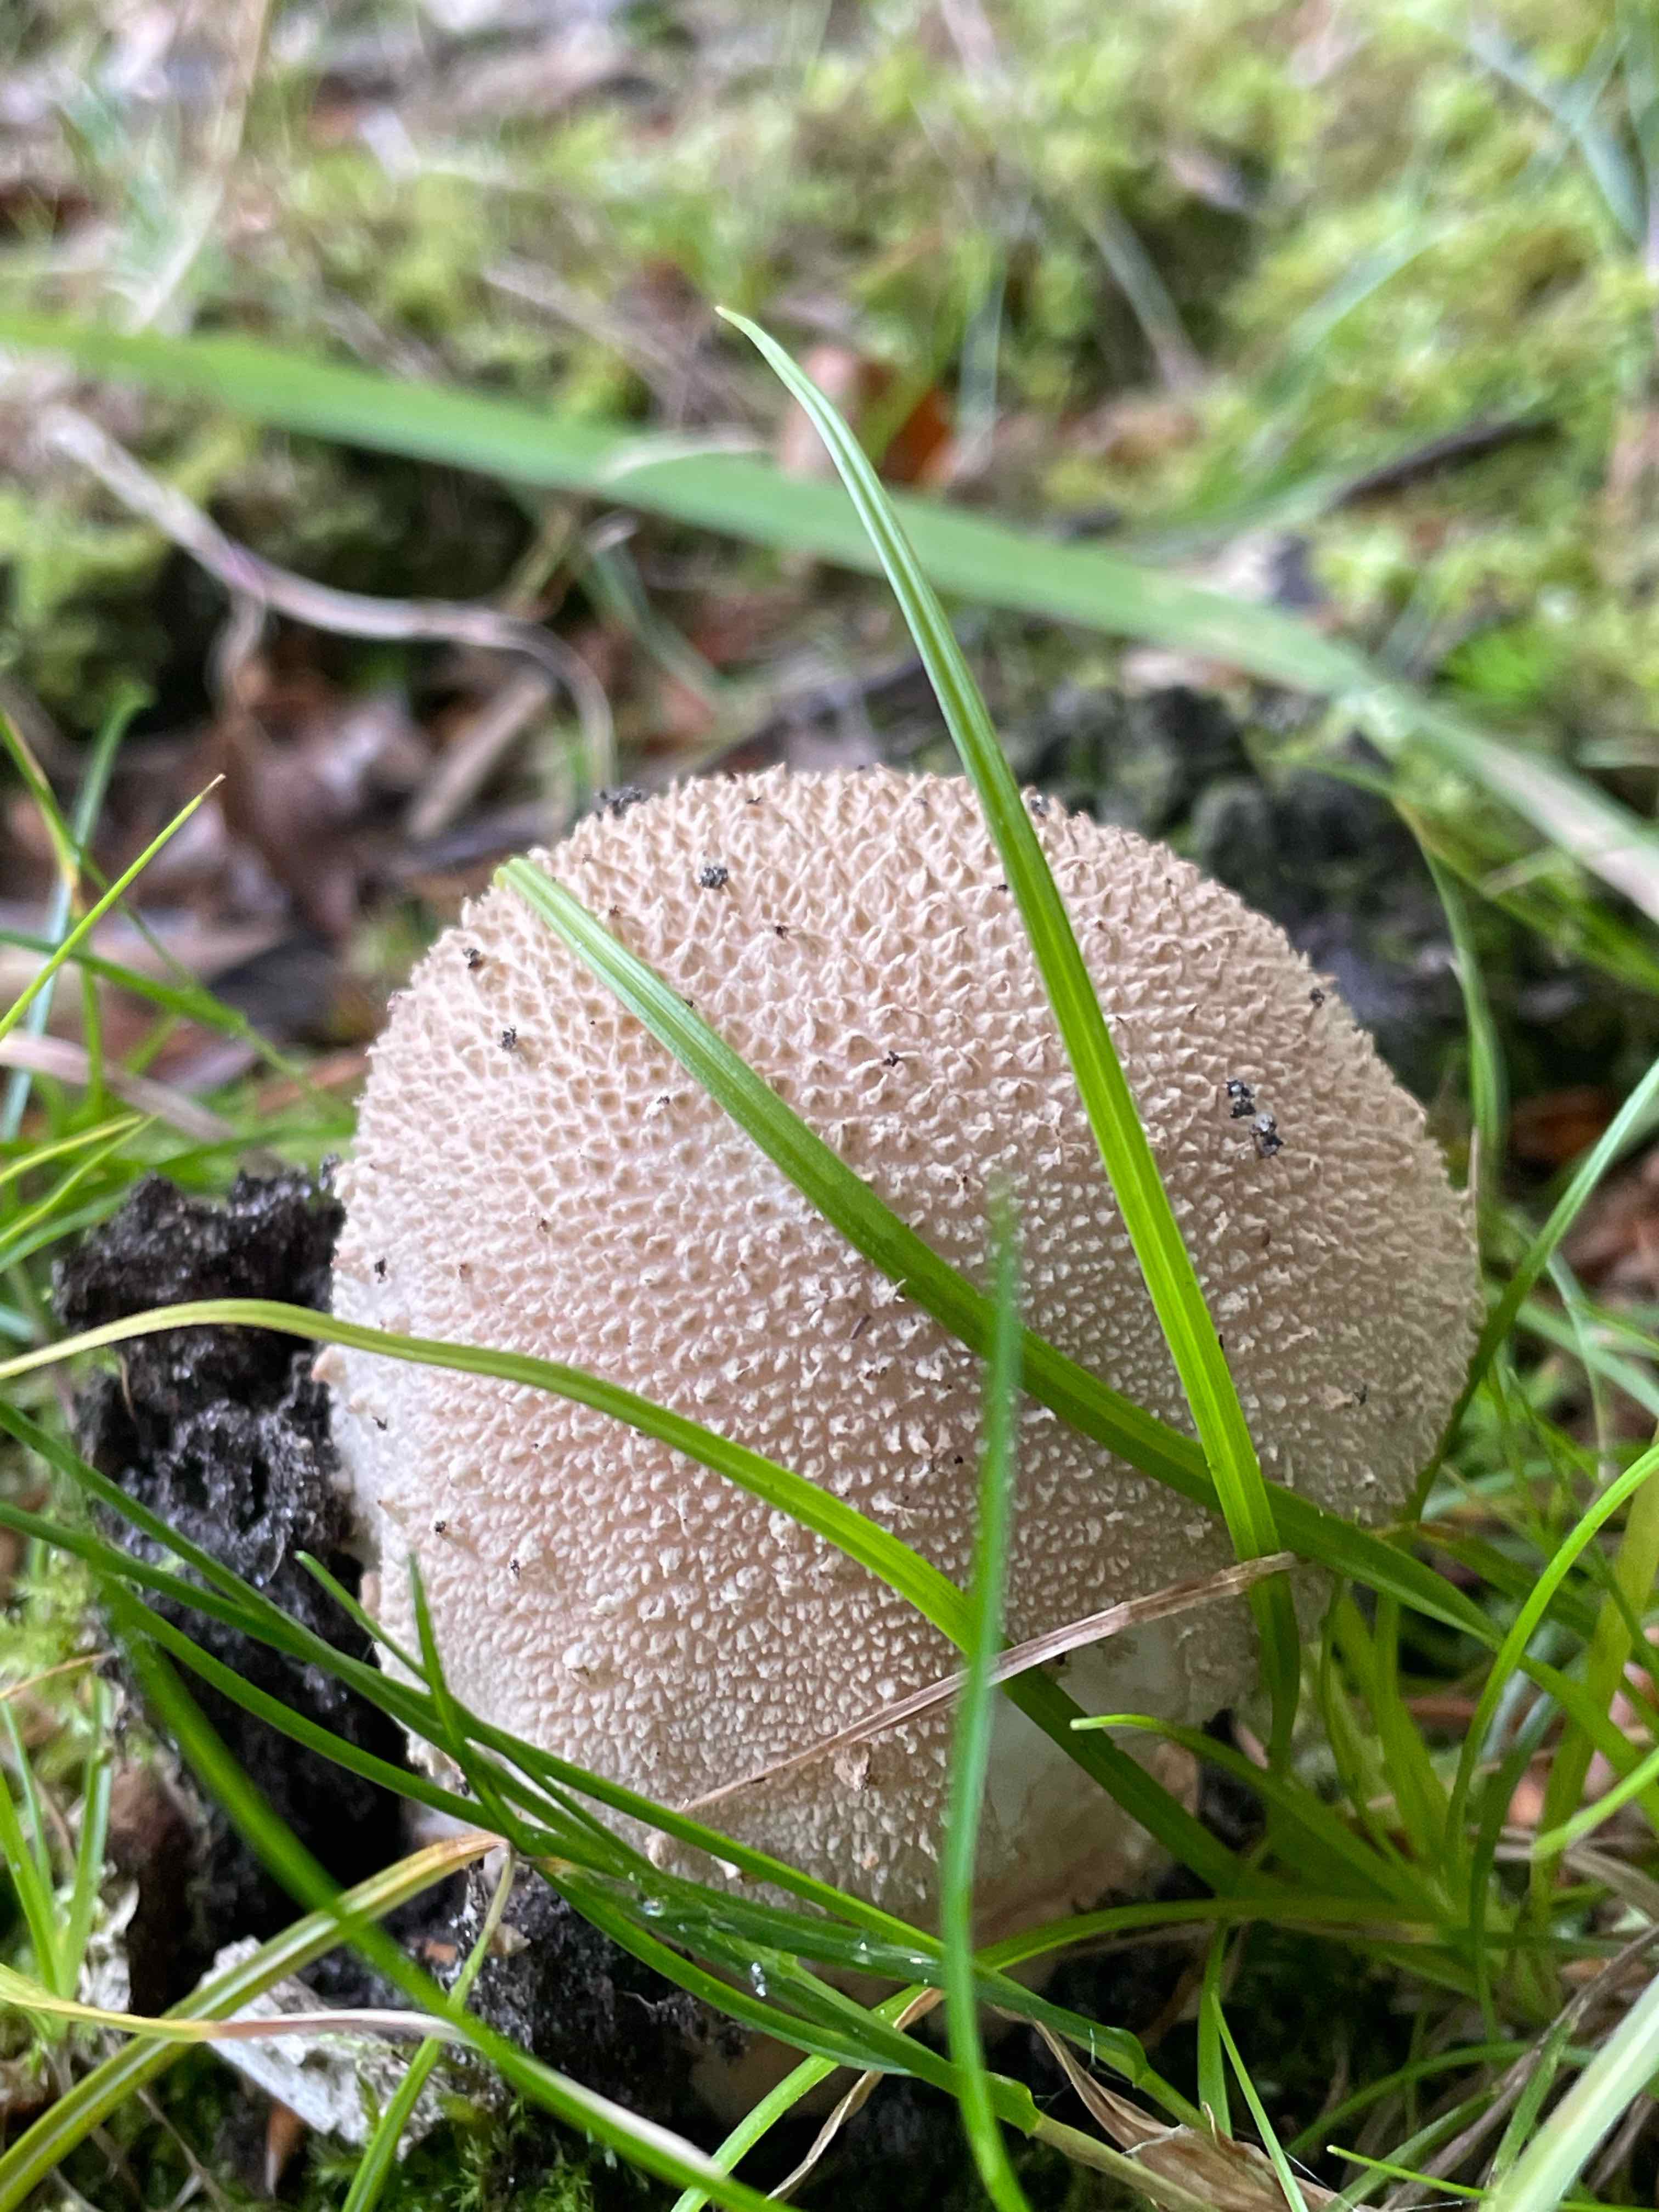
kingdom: Fungi
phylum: Basidiomycota
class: Agaricomycetes
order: Agaricales
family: Amanitaceae
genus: Amanita
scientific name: Amanita rubescens
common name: rødmende fluesvamp
